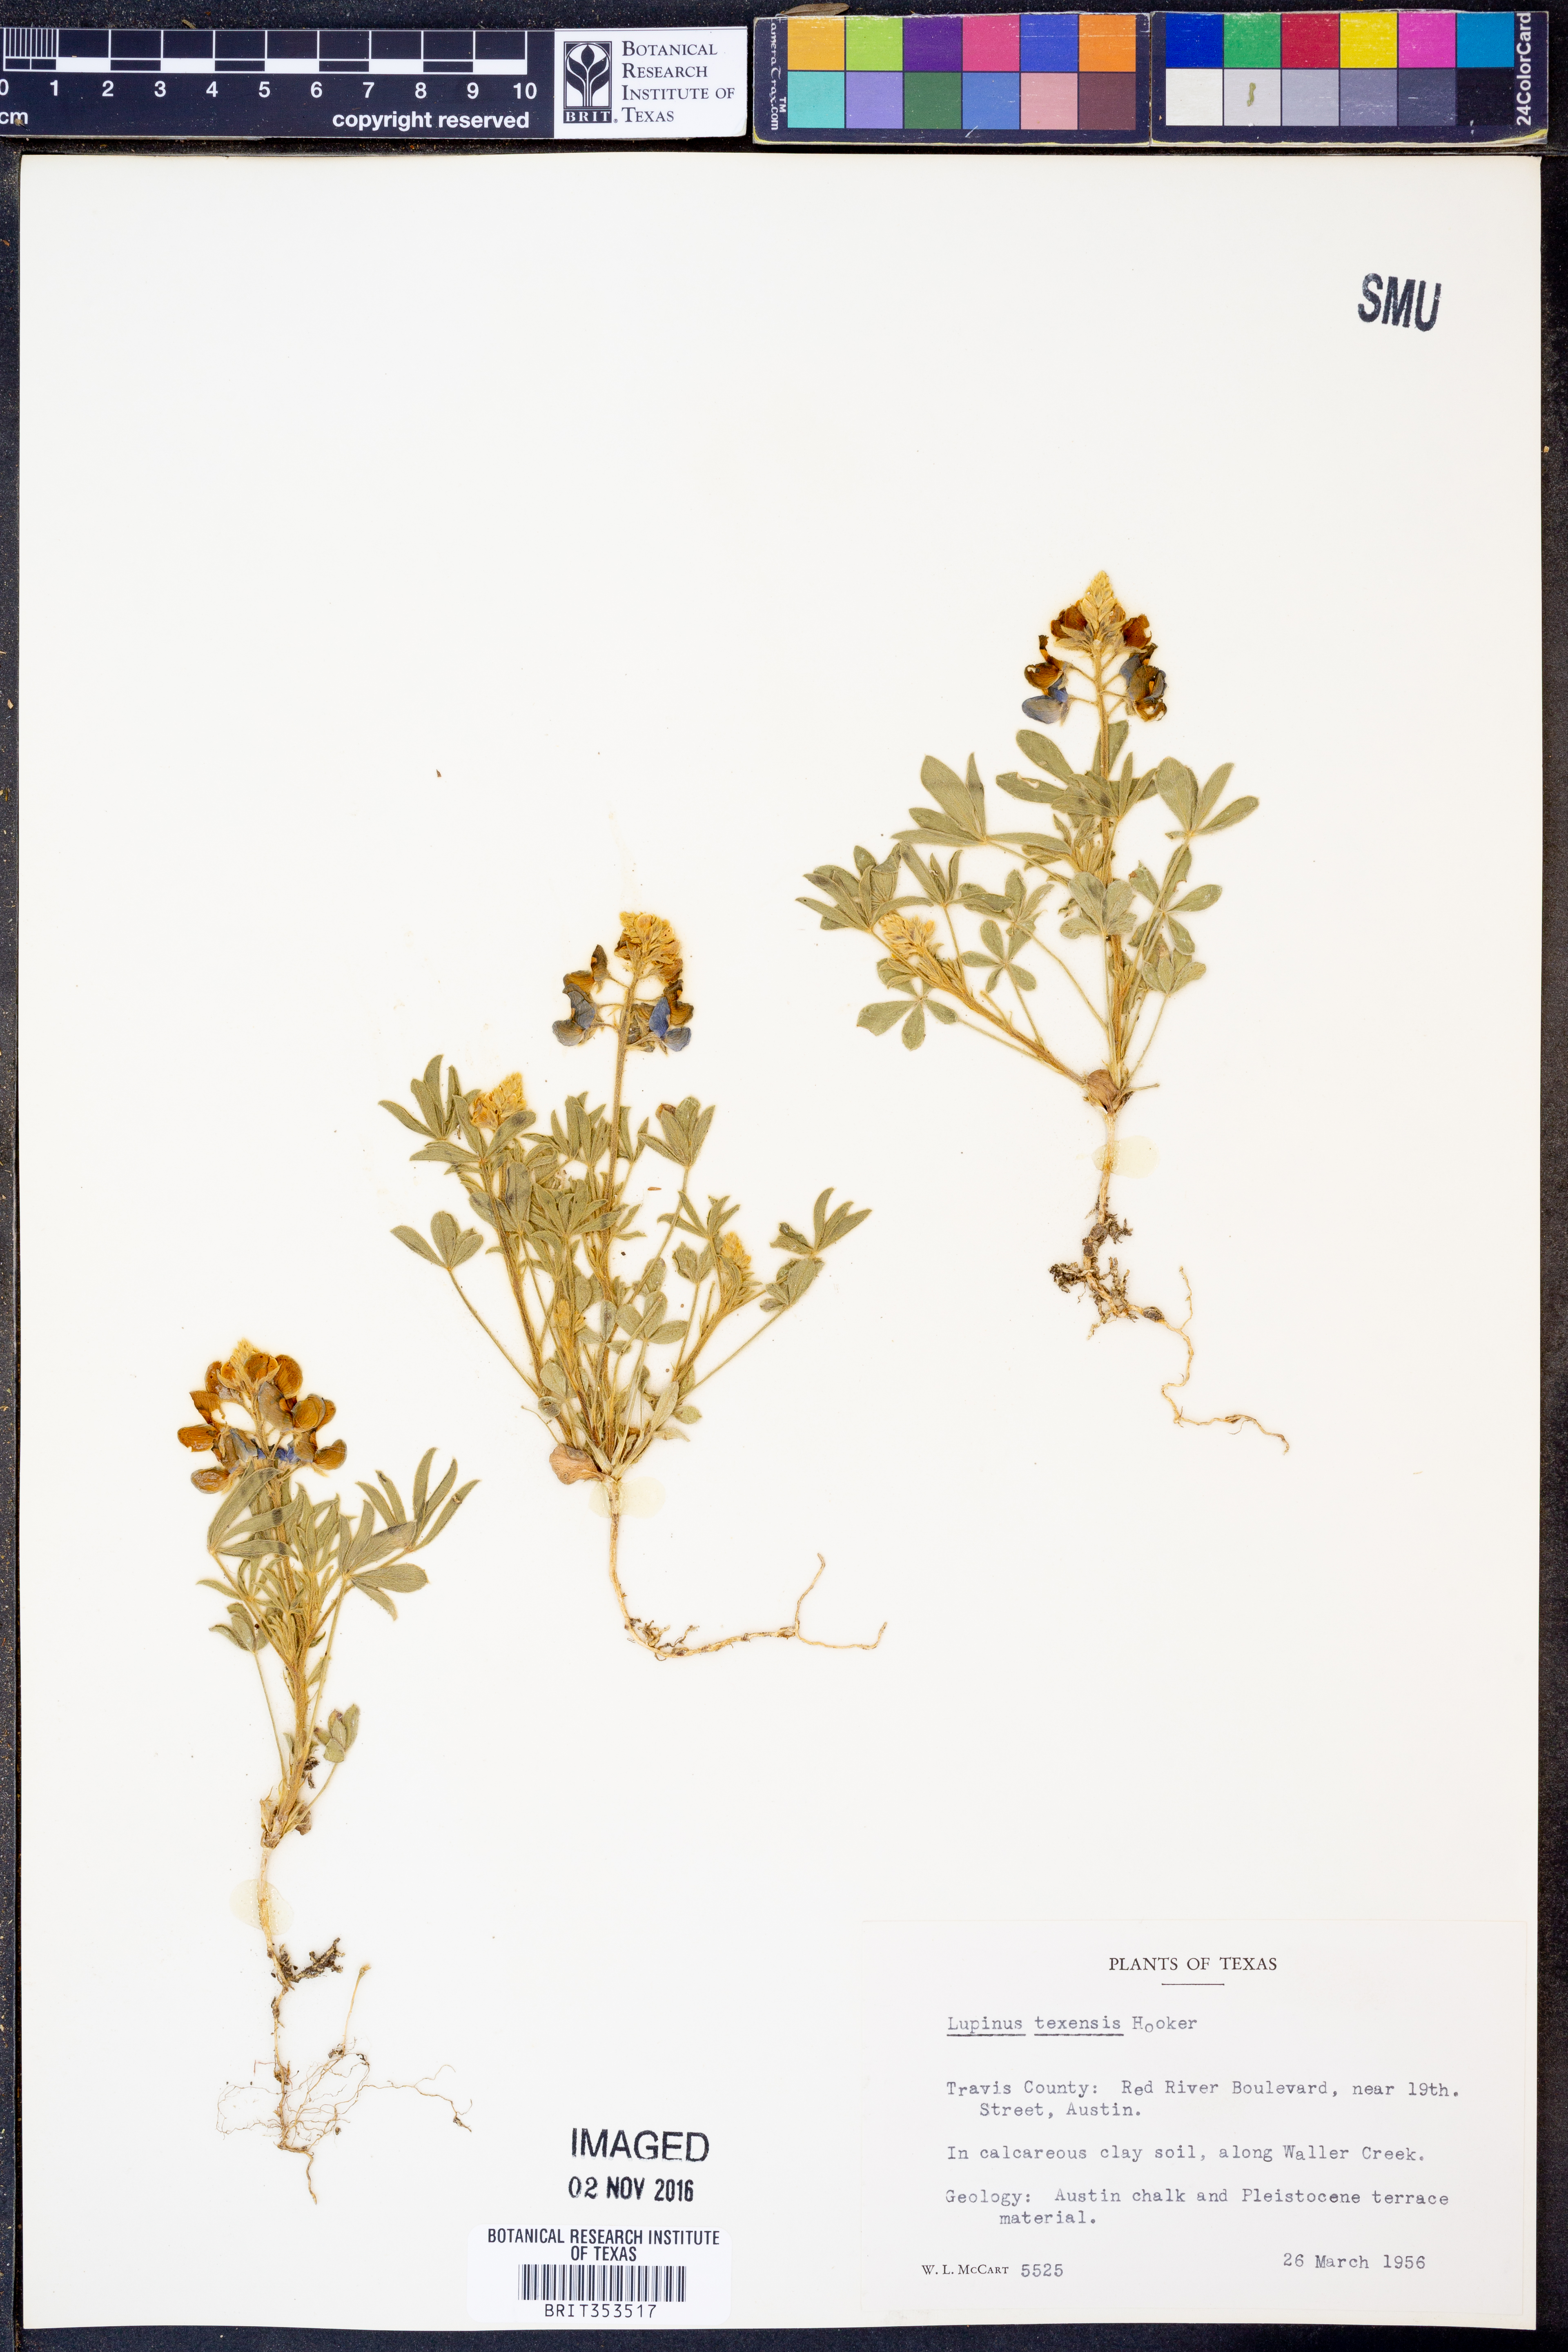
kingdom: Plantae
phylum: Tracheophyta
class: Magnoliopsida
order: Fabales
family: Fabaceae
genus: Lupinus
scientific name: Lupinus texensis
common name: Texas bluebonnet
